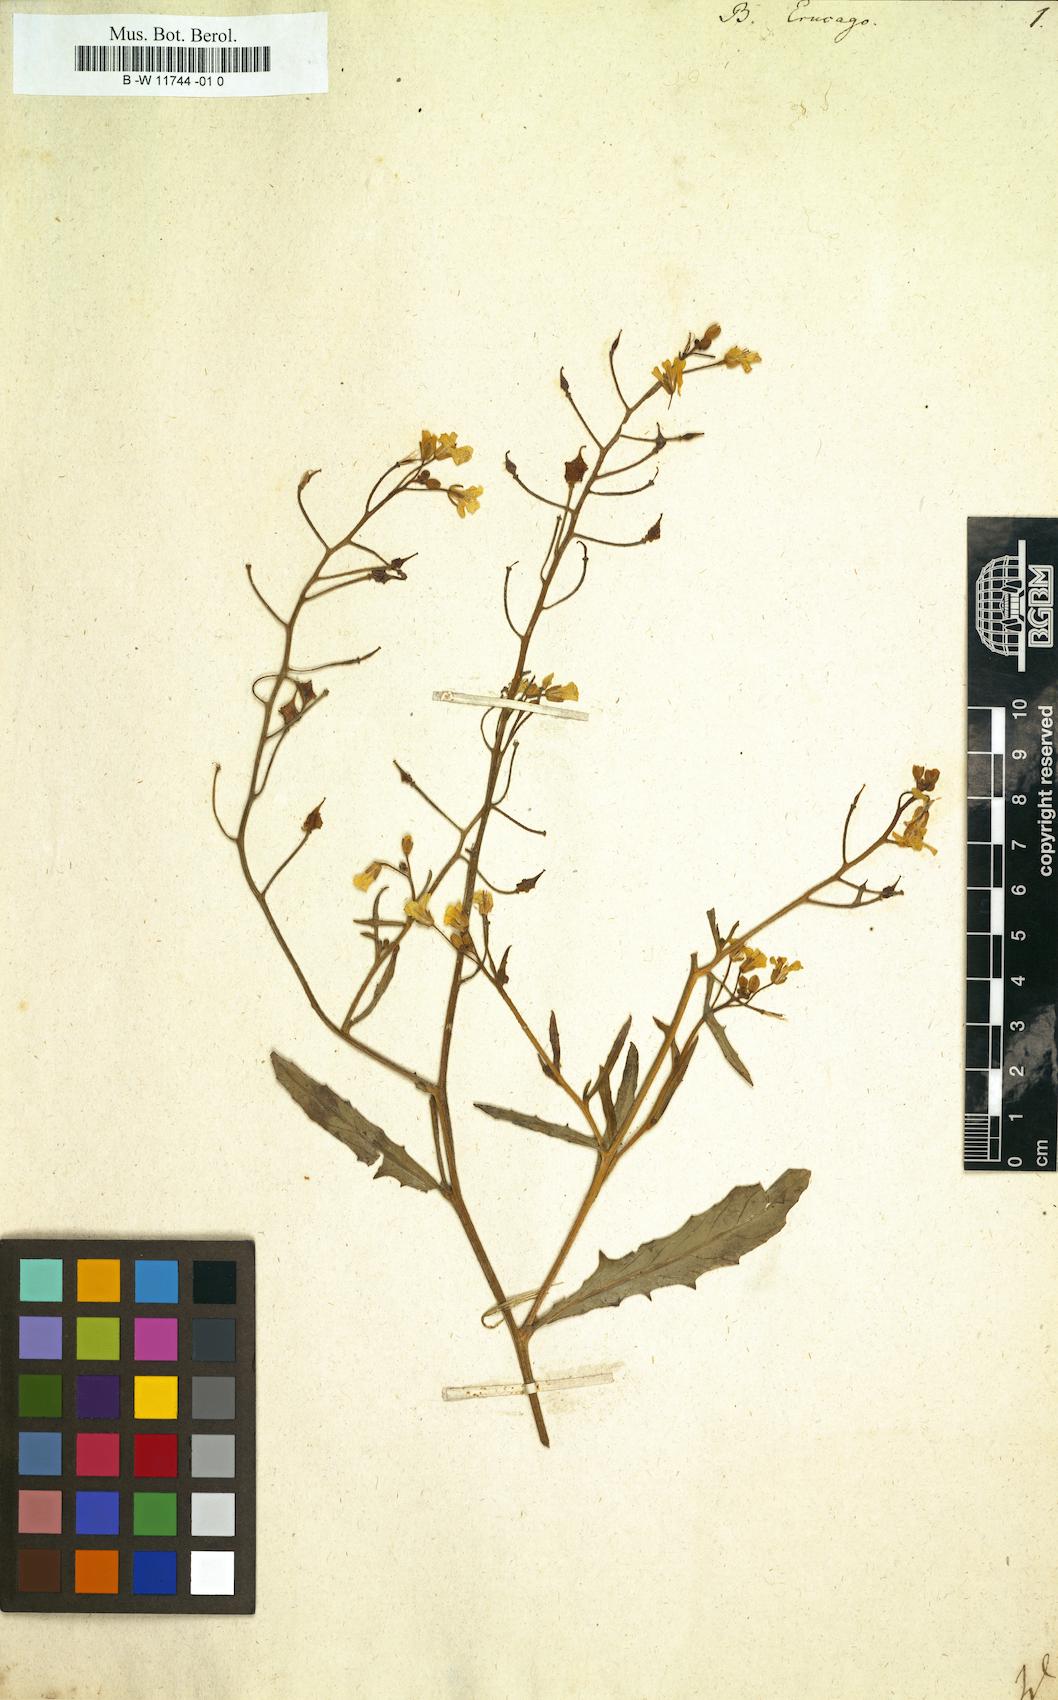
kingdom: Plantae
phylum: Tracheophyta
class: Magnoliopsida
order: Brassicales
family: Brassicaceae
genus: Bunias
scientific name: Bunias erucago
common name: Southern warty-cabbage
